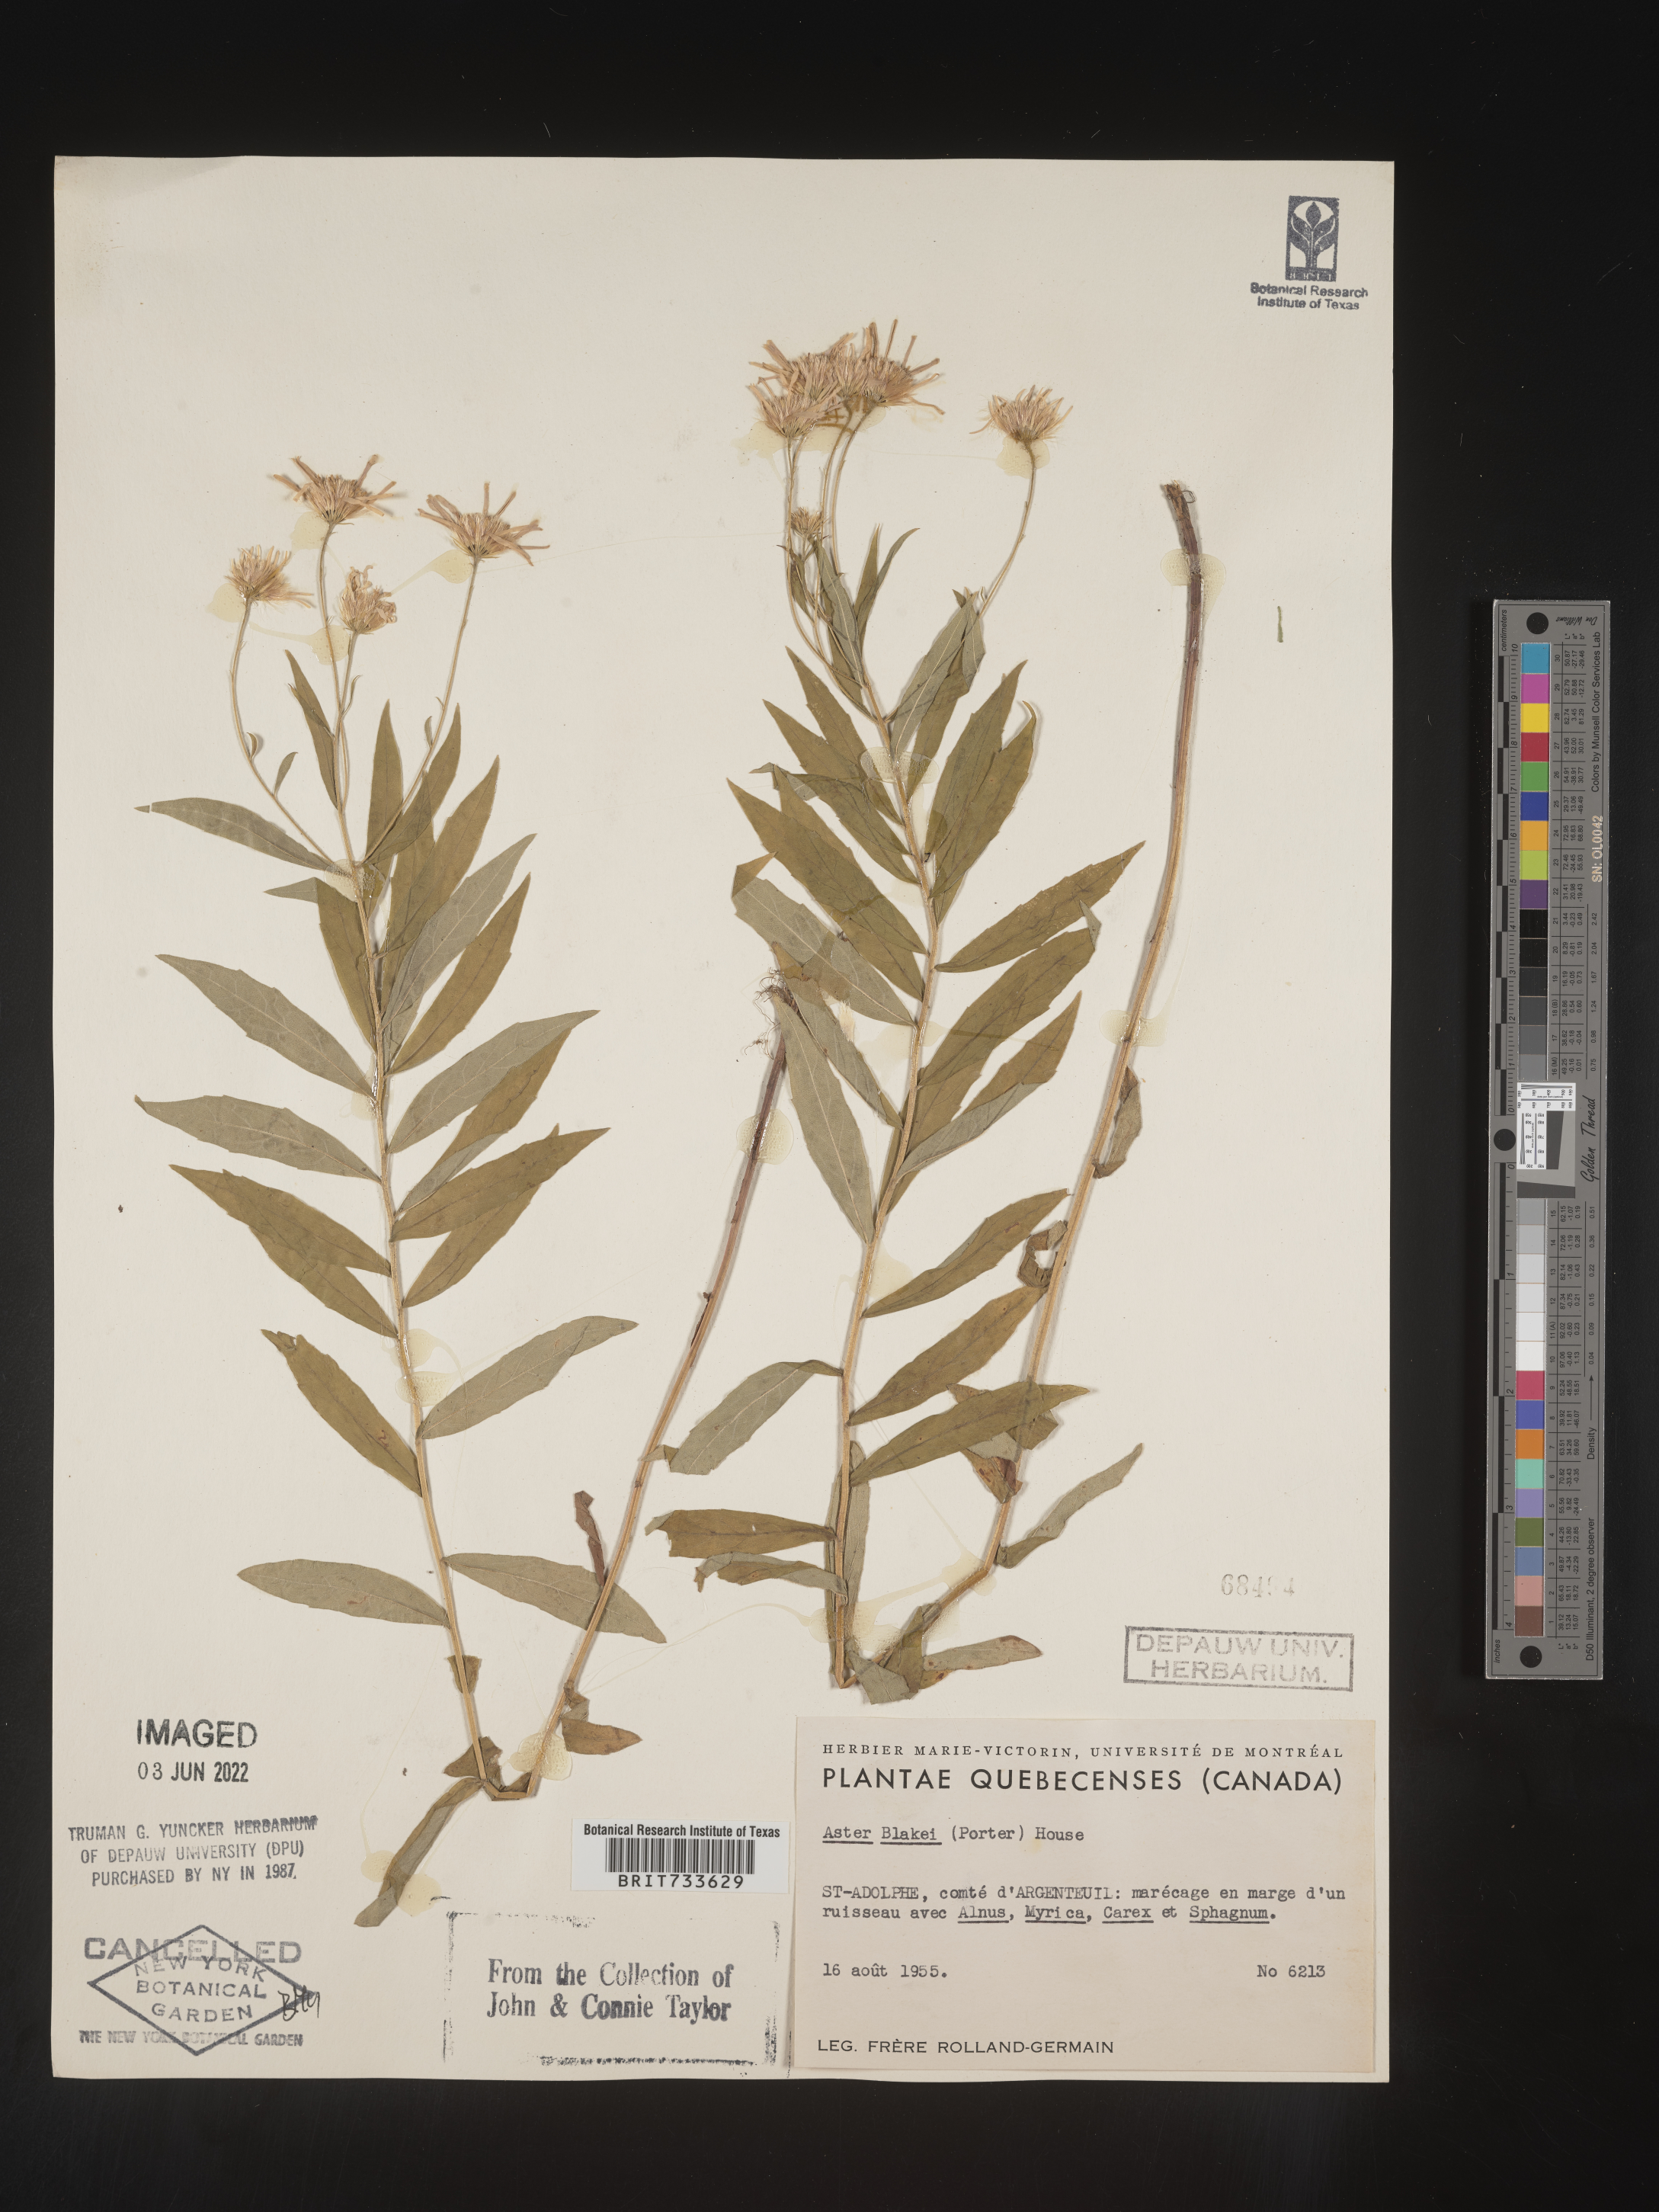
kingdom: Plantae
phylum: Tracheophyta
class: Magnoliopsida
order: Asterales
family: Asteraceae
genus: Oclemena
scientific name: Oclemena blakei
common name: Blake's aster
